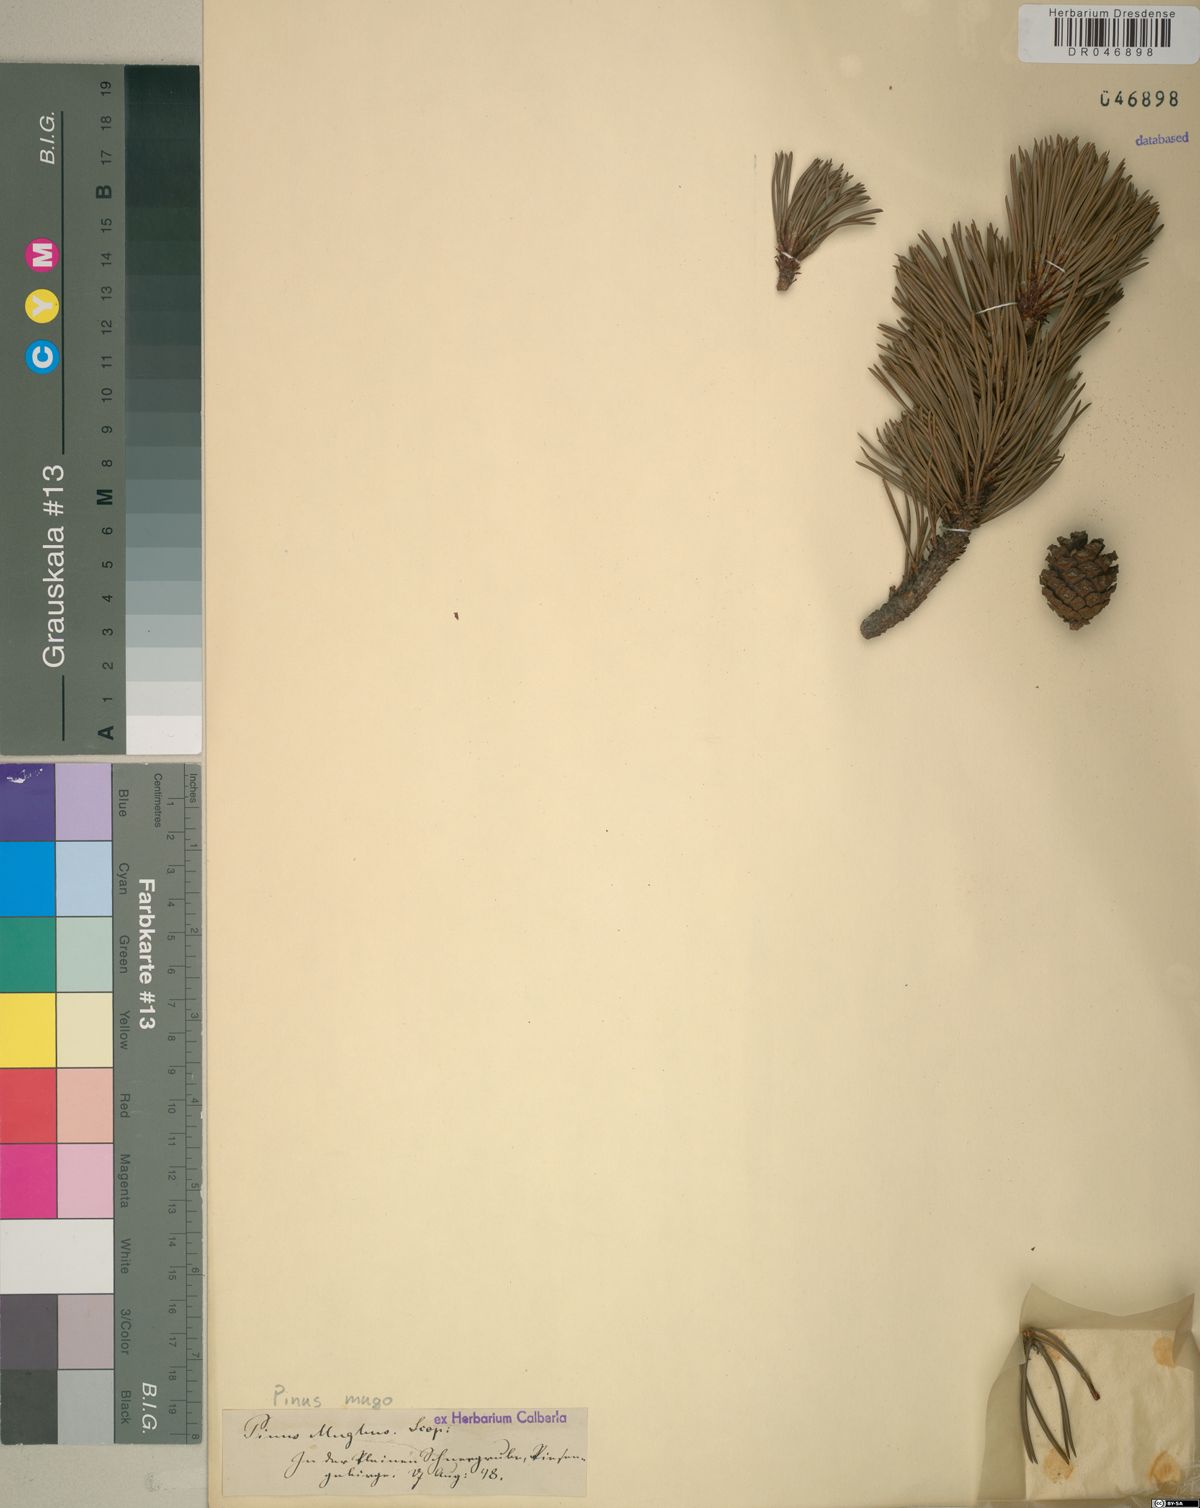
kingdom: Plantae
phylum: Tracheophyta
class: Pinopsida
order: Pinales
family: Pinaceae
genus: Pinus
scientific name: Pinus mugo
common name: Mugo pine
